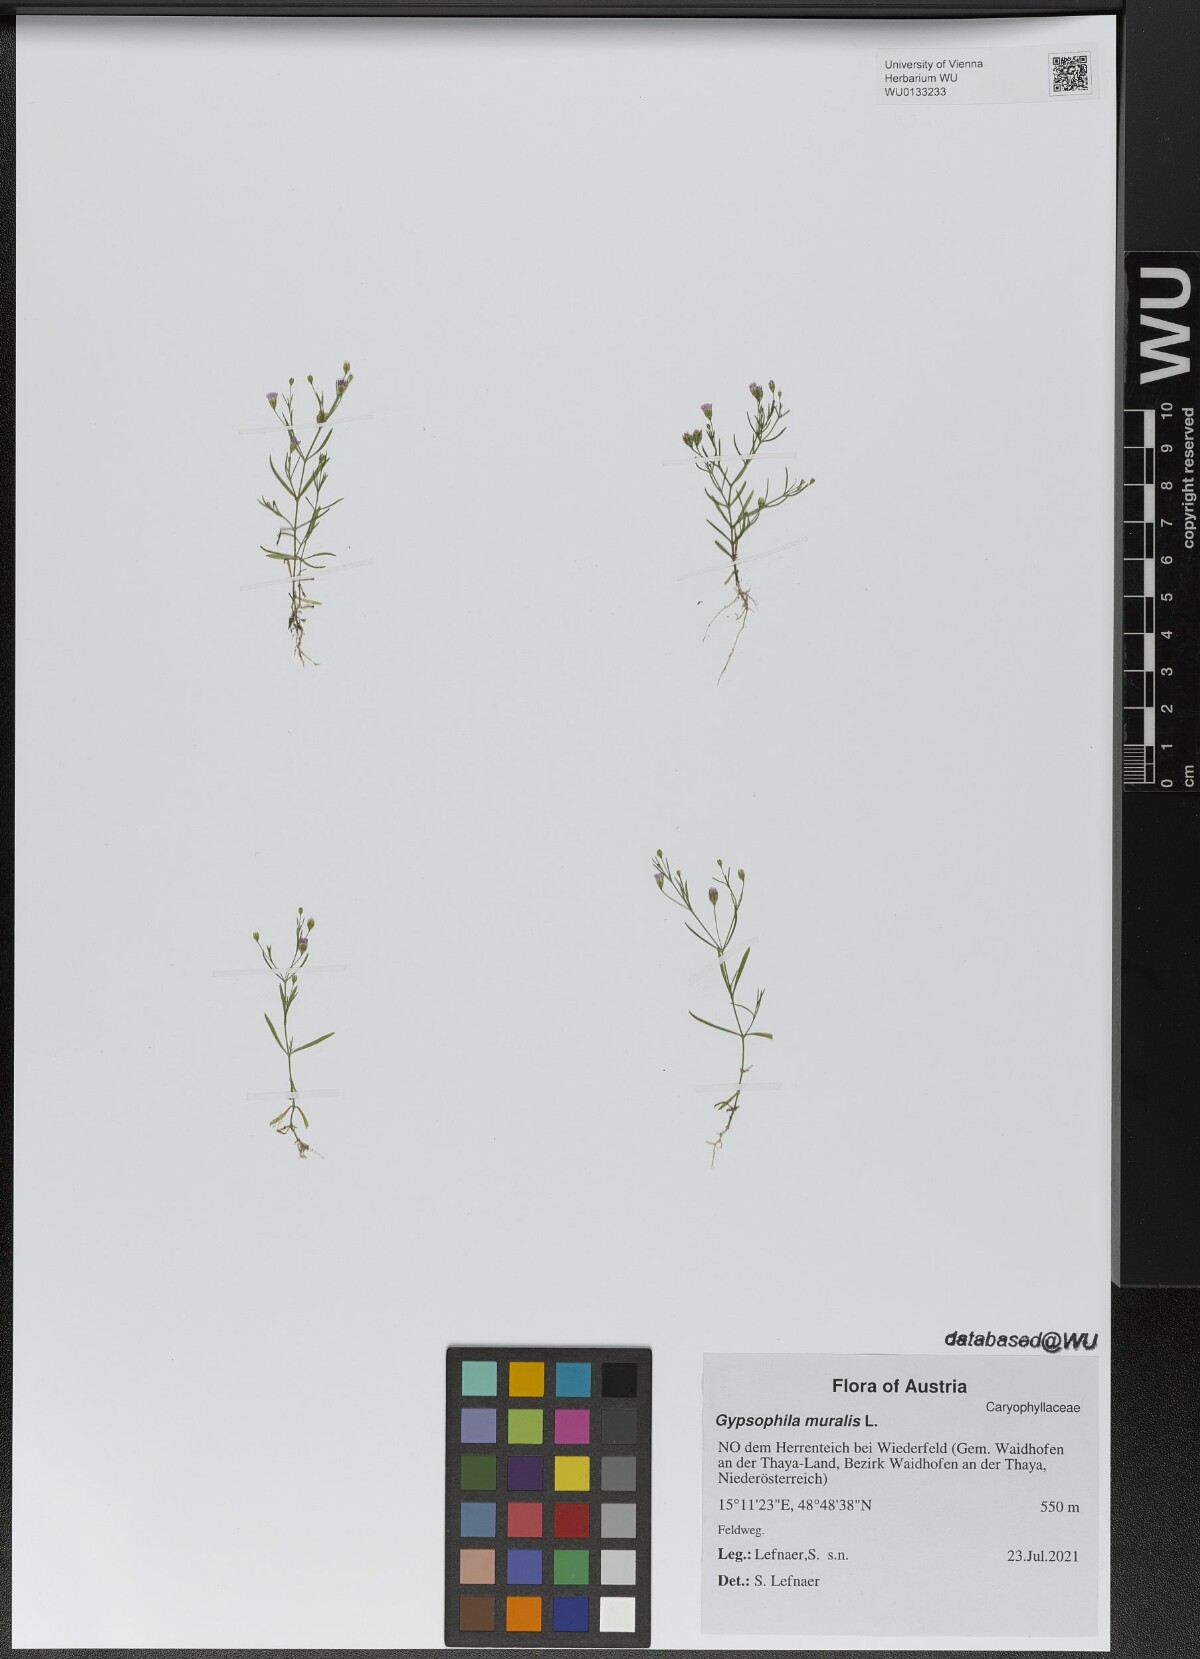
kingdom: Plantae
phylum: Tracheophyta
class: Magnoliopsida
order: Caryophyllales
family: Caryophyllaceae
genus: Psammophiliella
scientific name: Psammophiliella muralis
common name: Cushion baby's-breath
